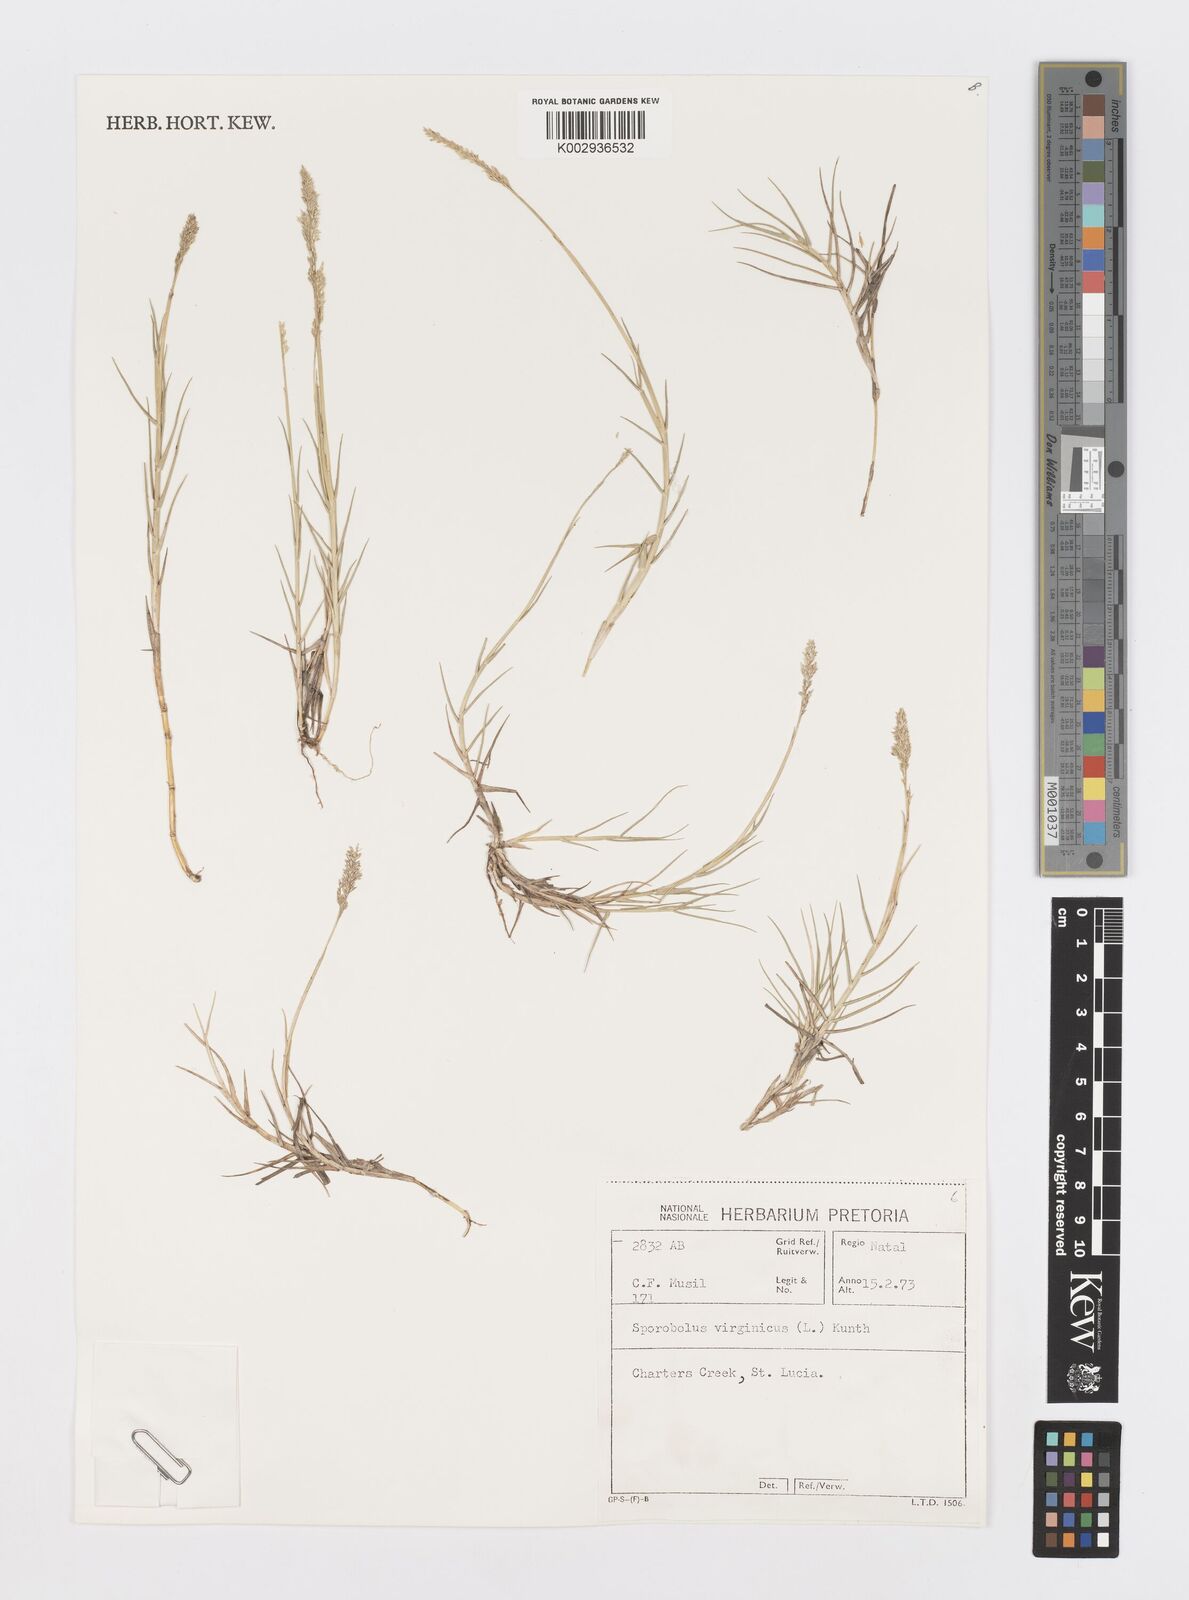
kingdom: Plantae
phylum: Tracheophyta
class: Liliopsida
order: Poales
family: Poaceae
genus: Sporobolus
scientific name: Sporobolus virginicus
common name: Beach dropseed
